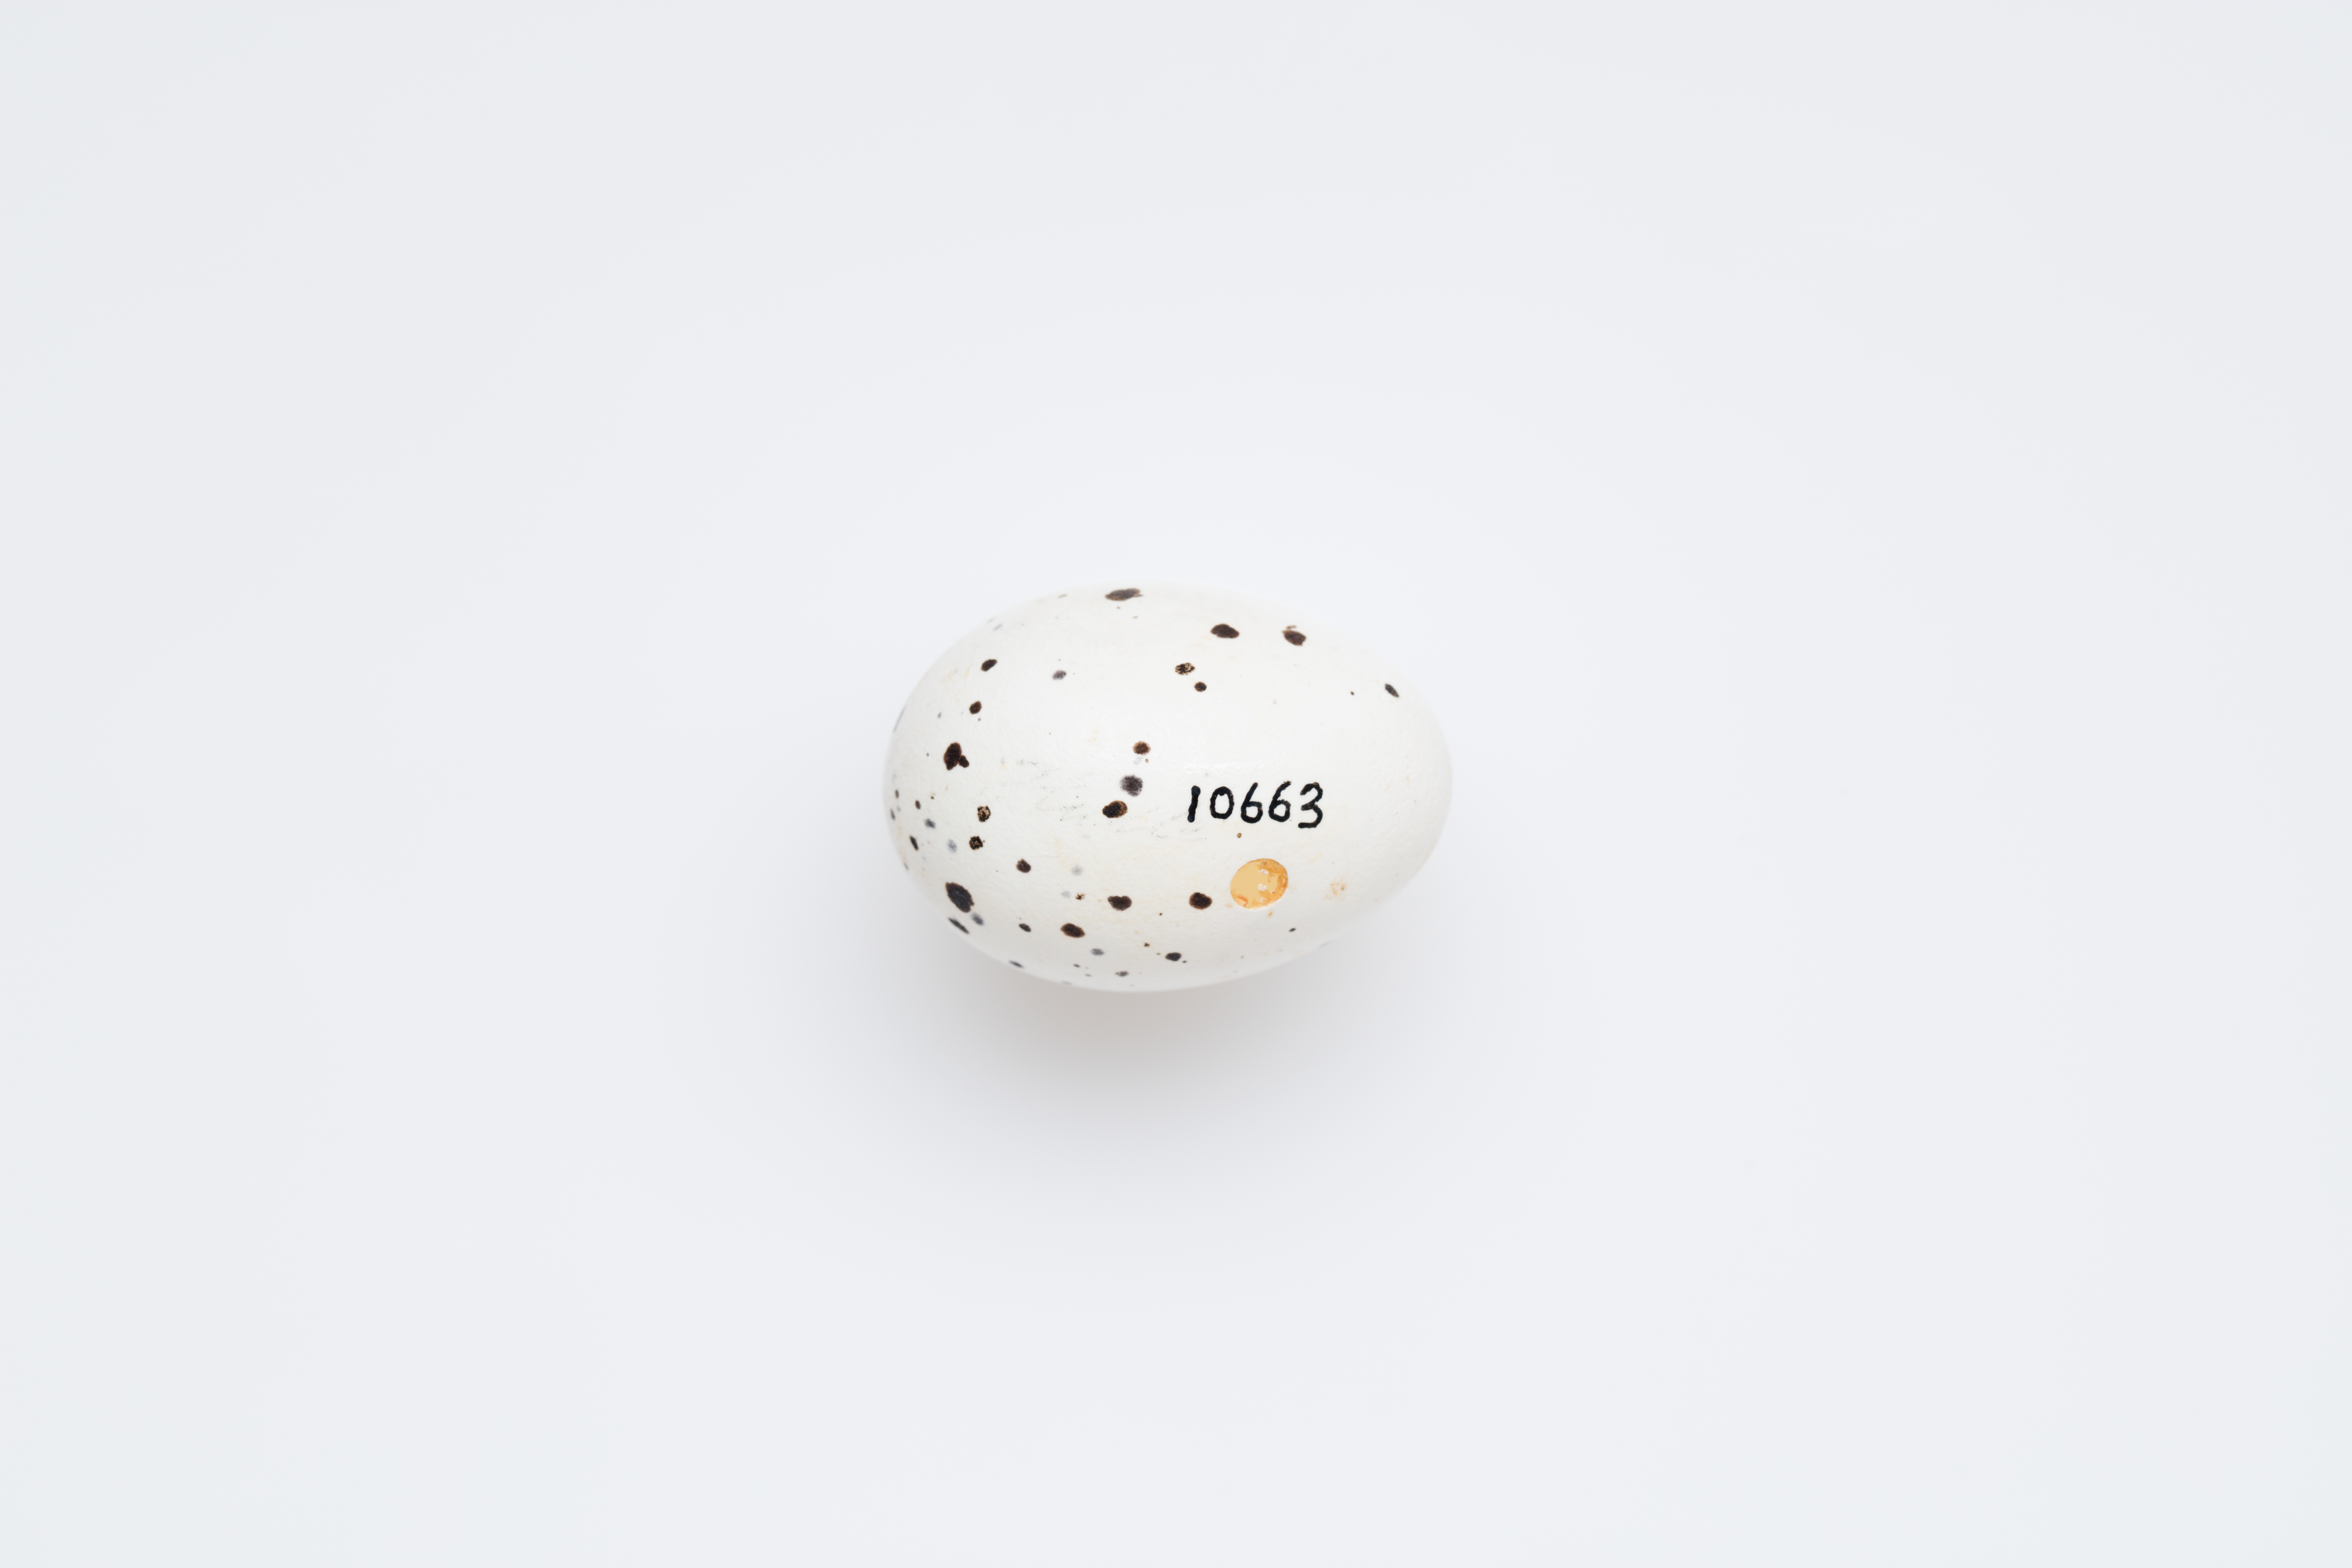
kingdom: Animalia
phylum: Chordata
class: Aves
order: Passeriformes
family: Oriolidae
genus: Oriolus
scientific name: Oriolus oriolus
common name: Eurasian golden oriole
